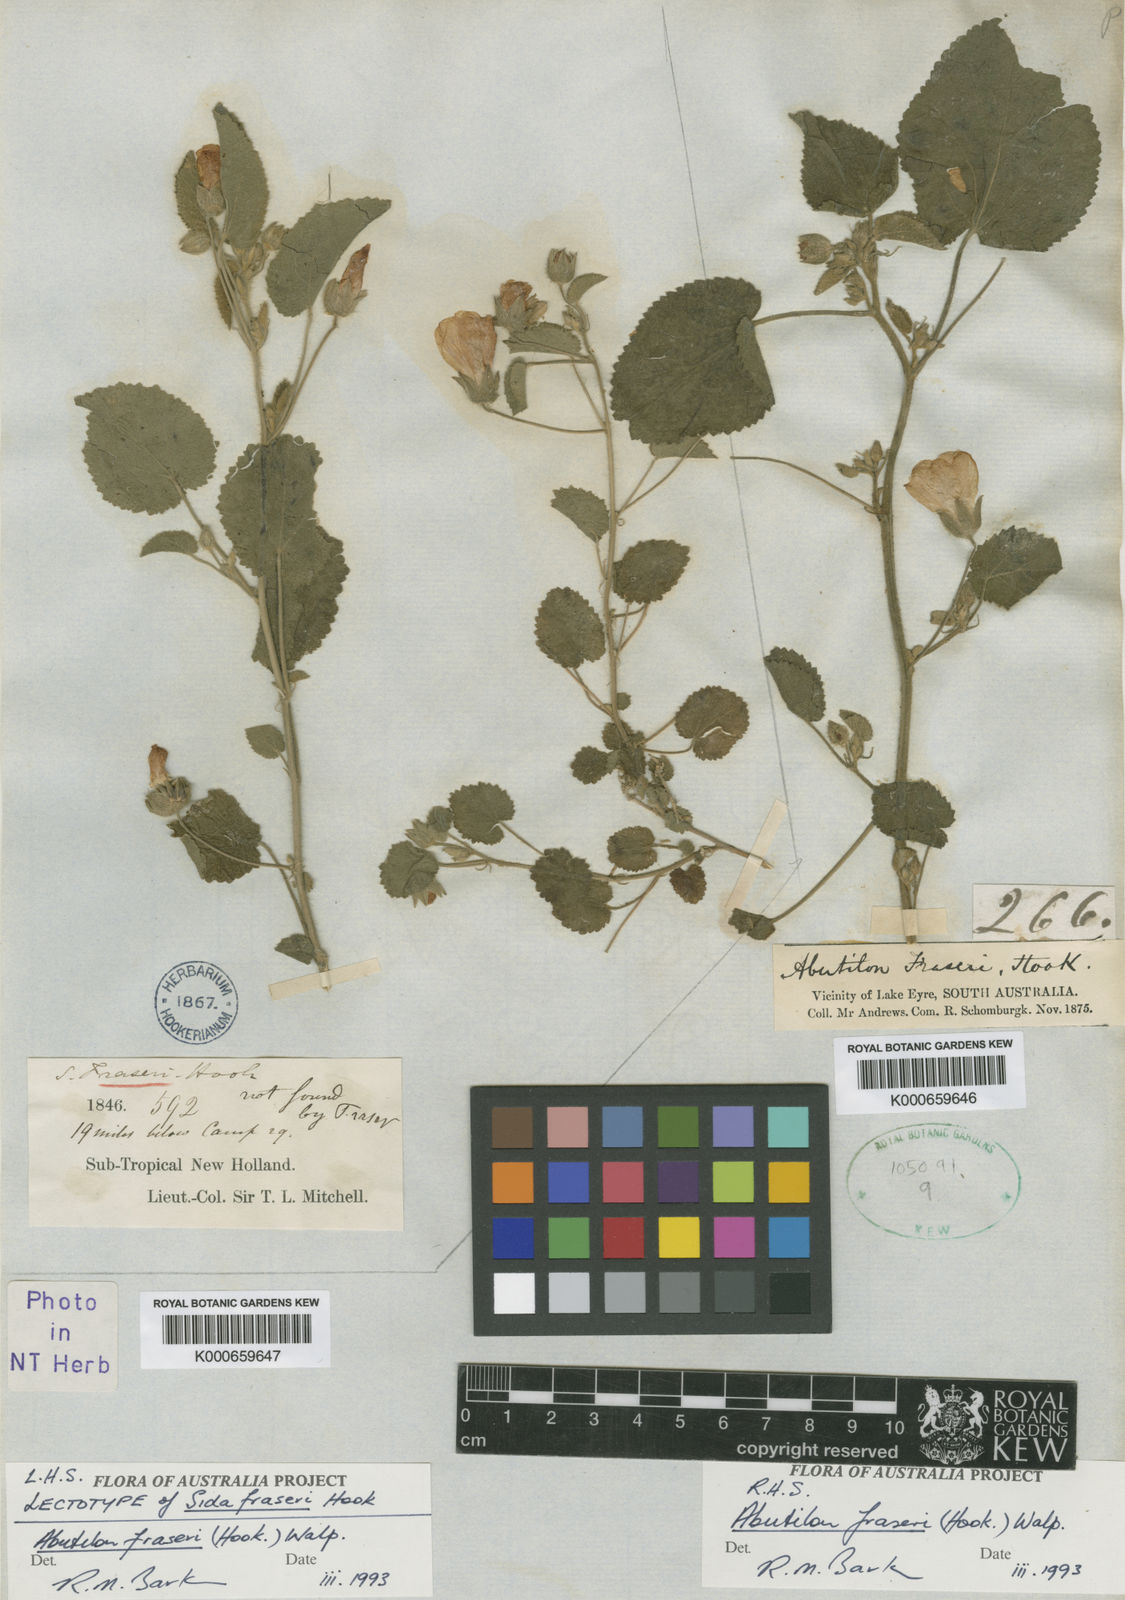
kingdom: Plantae
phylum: Tracheophyta
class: Magnoliopsida
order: Malvales
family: Malvaceae
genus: Abutilon
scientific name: Abutilon fraseri
